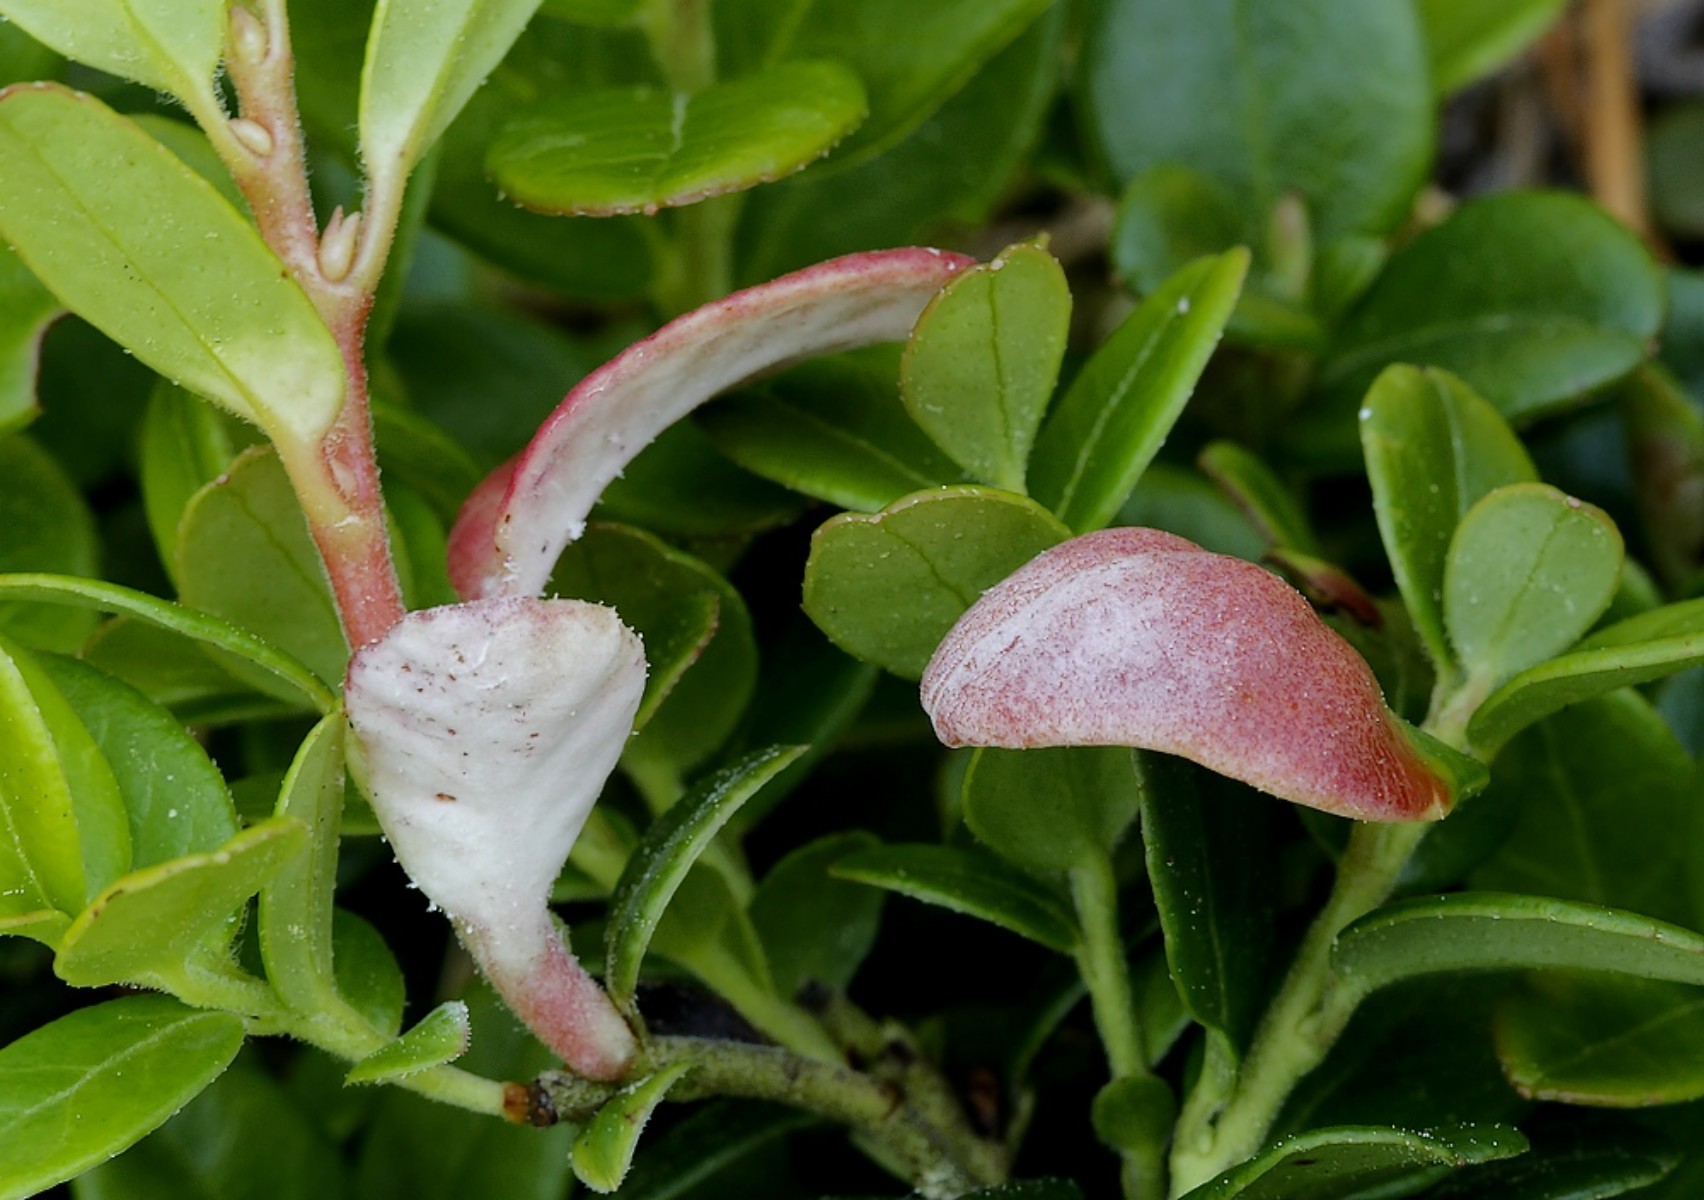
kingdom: Fungi
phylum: Basidiomycota
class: Exobasidiomycetes
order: Exobasidiales
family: Exobasidiaceae
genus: Exobasidium
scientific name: Exobasidium vaccinii
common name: tyttebærblad-bøllesvamp
